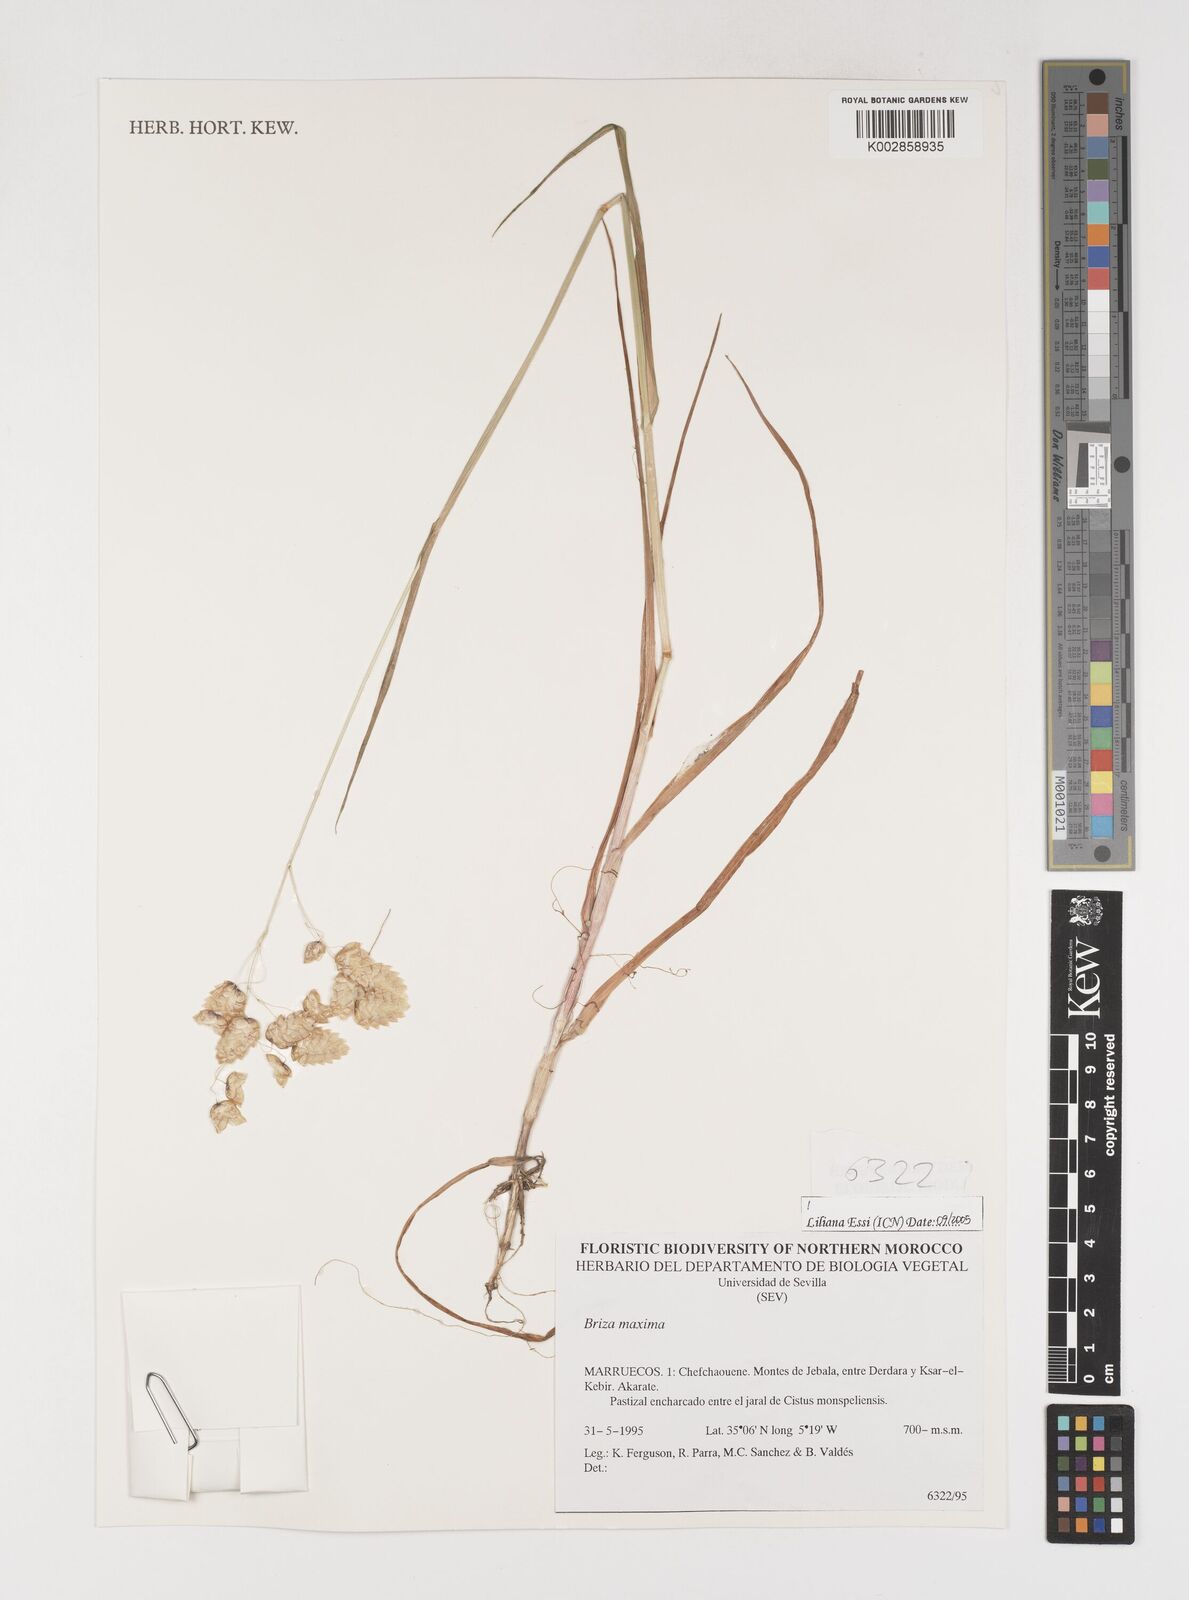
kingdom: Plantae
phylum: Tracheophyta
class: Liliopsida
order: Poales
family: Poaceae
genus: Briza
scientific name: Briza maxima
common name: Big quakinggrass
